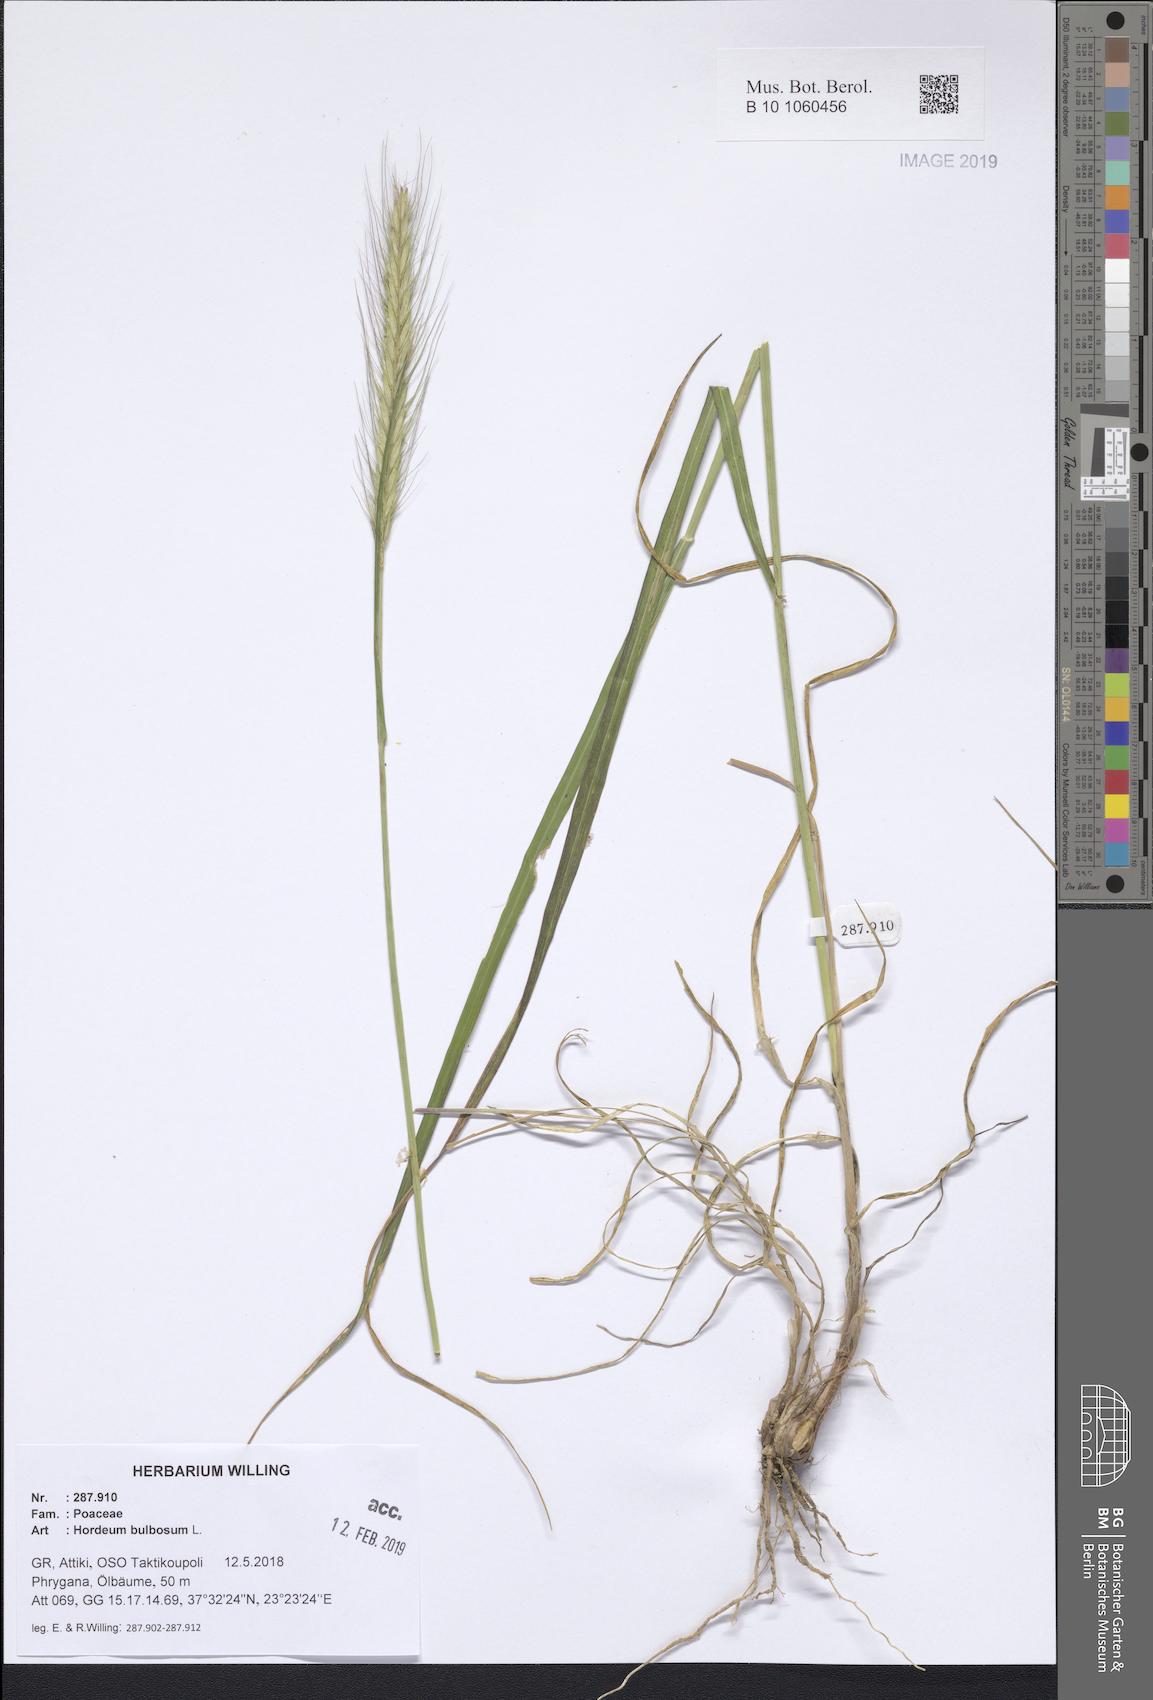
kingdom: Plantae
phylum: Tracheophyta
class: Liliopsida
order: Poales
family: Poaceae
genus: Hordeum
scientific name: Hordeum bulbosum
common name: Bulbous barley
